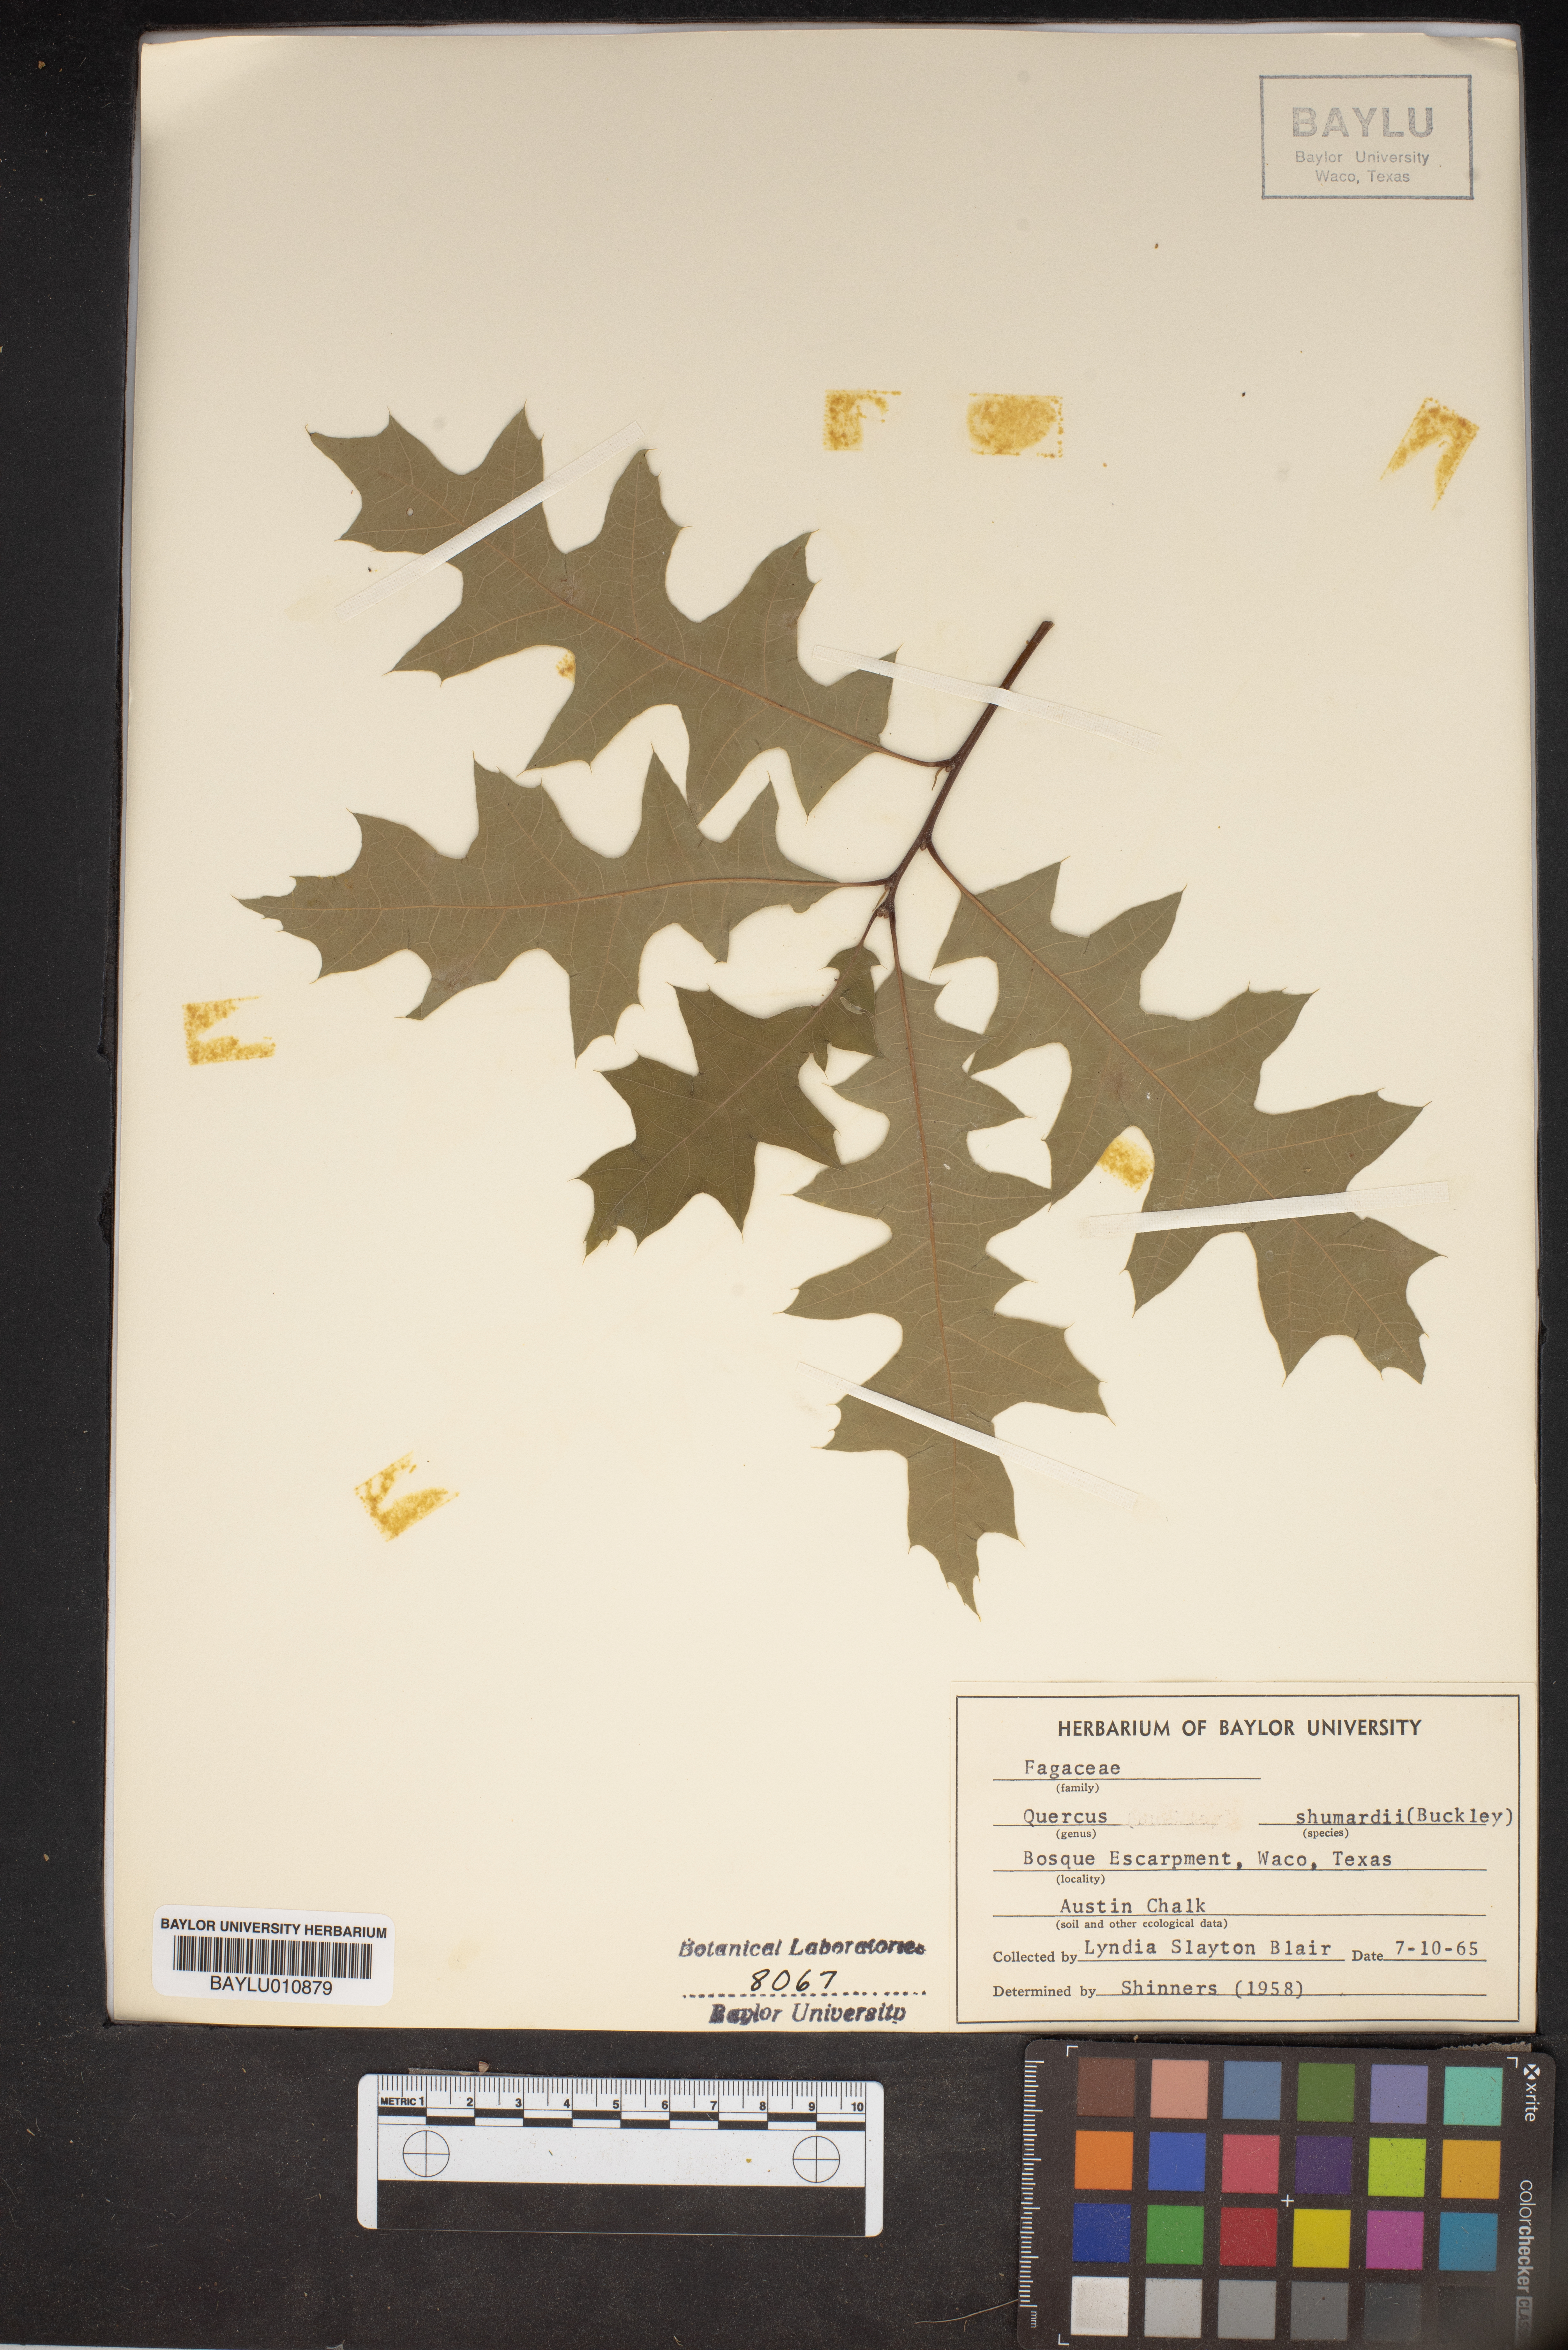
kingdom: Plantae
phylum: Tracheophyta
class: Magnoliopsida
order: Fagales
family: Fagaceae
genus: Quercus
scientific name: Quercus shumardii
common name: Shumard oak
